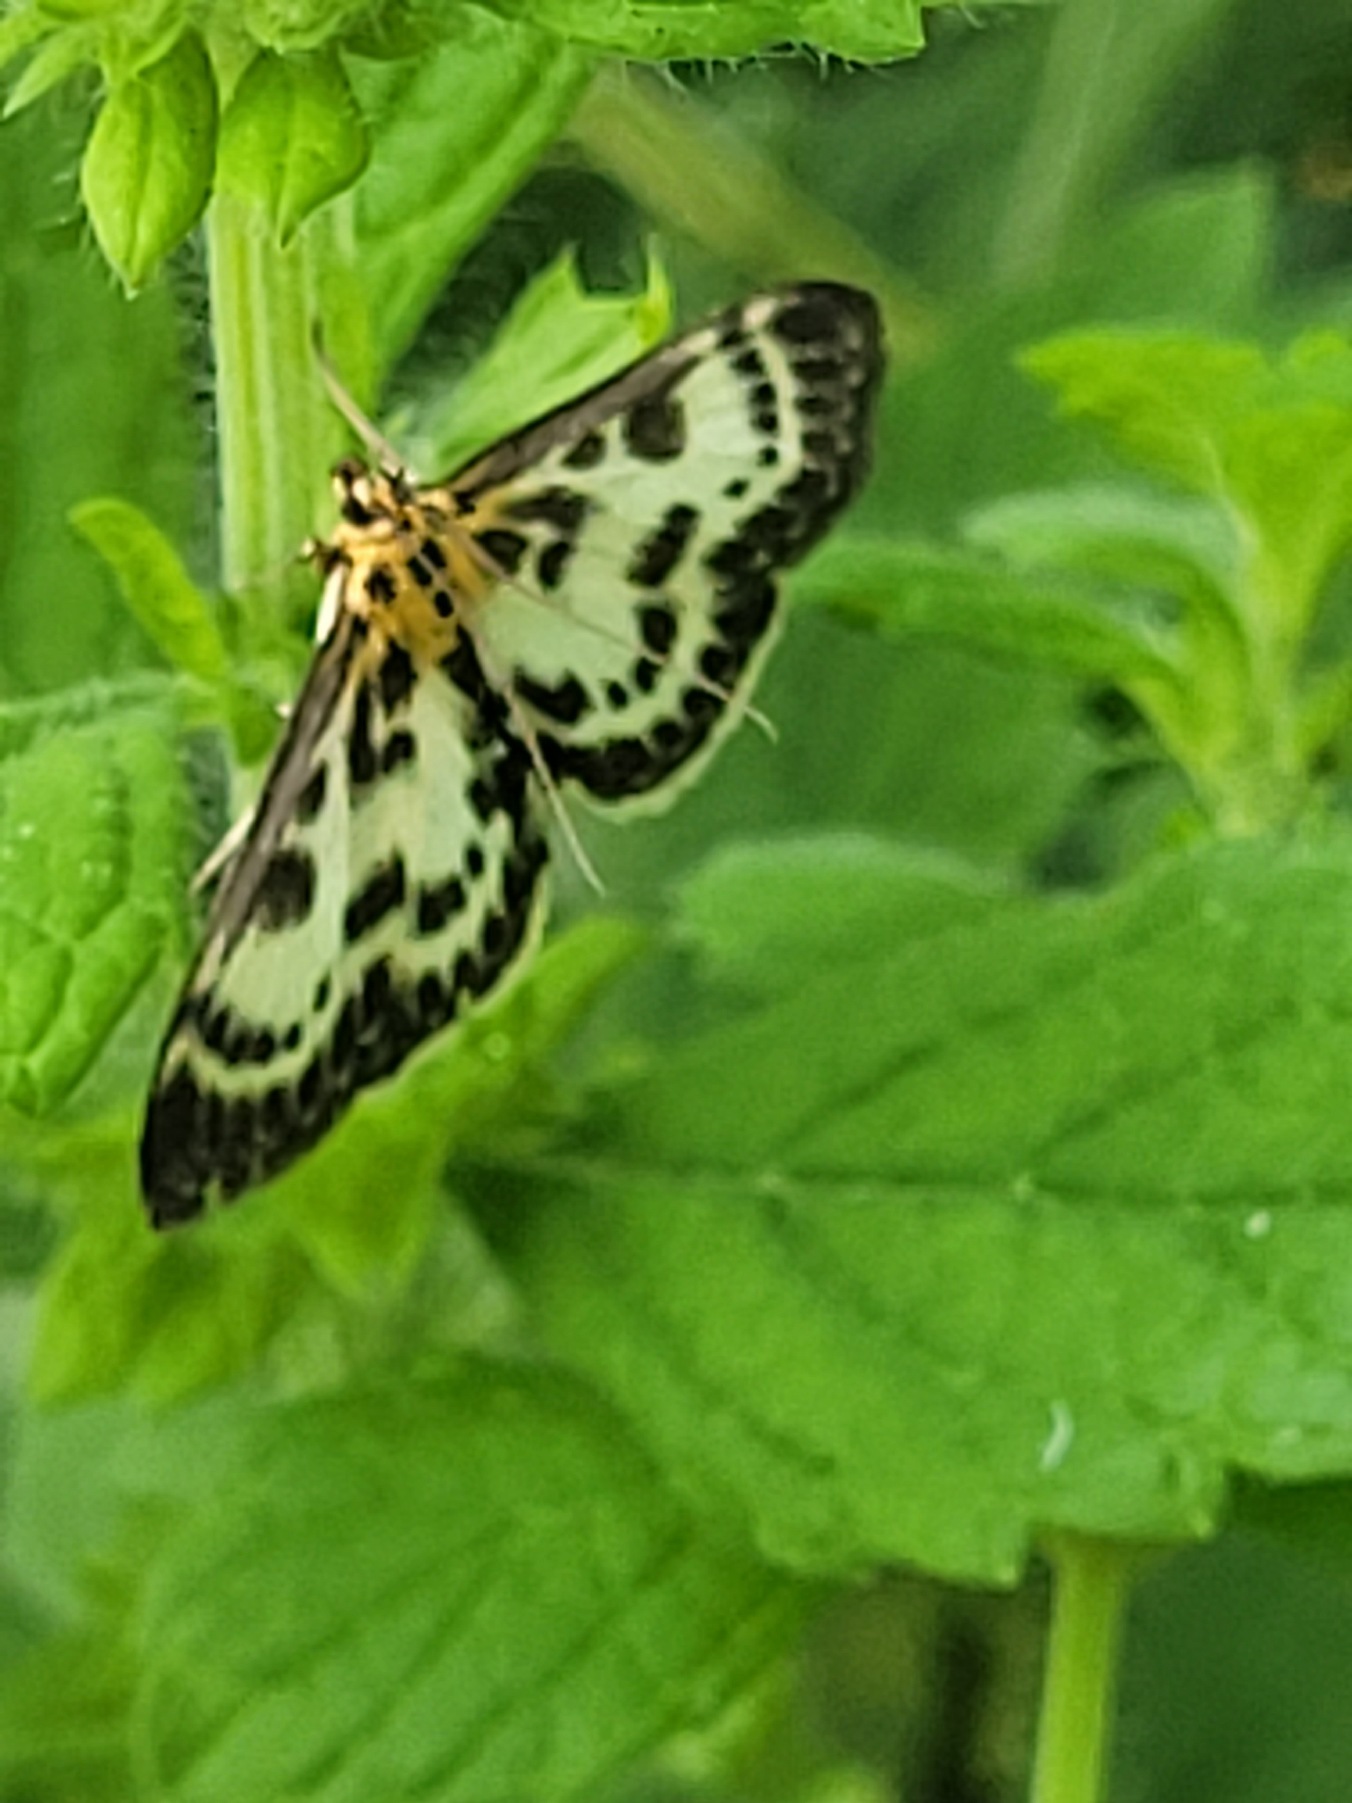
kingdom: Animalia
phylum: Arthropoda
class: Insecta
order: Lepidoptera
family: Crambidae
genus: Anania
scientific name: Anania hortulata
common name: Nældehalvmøl
